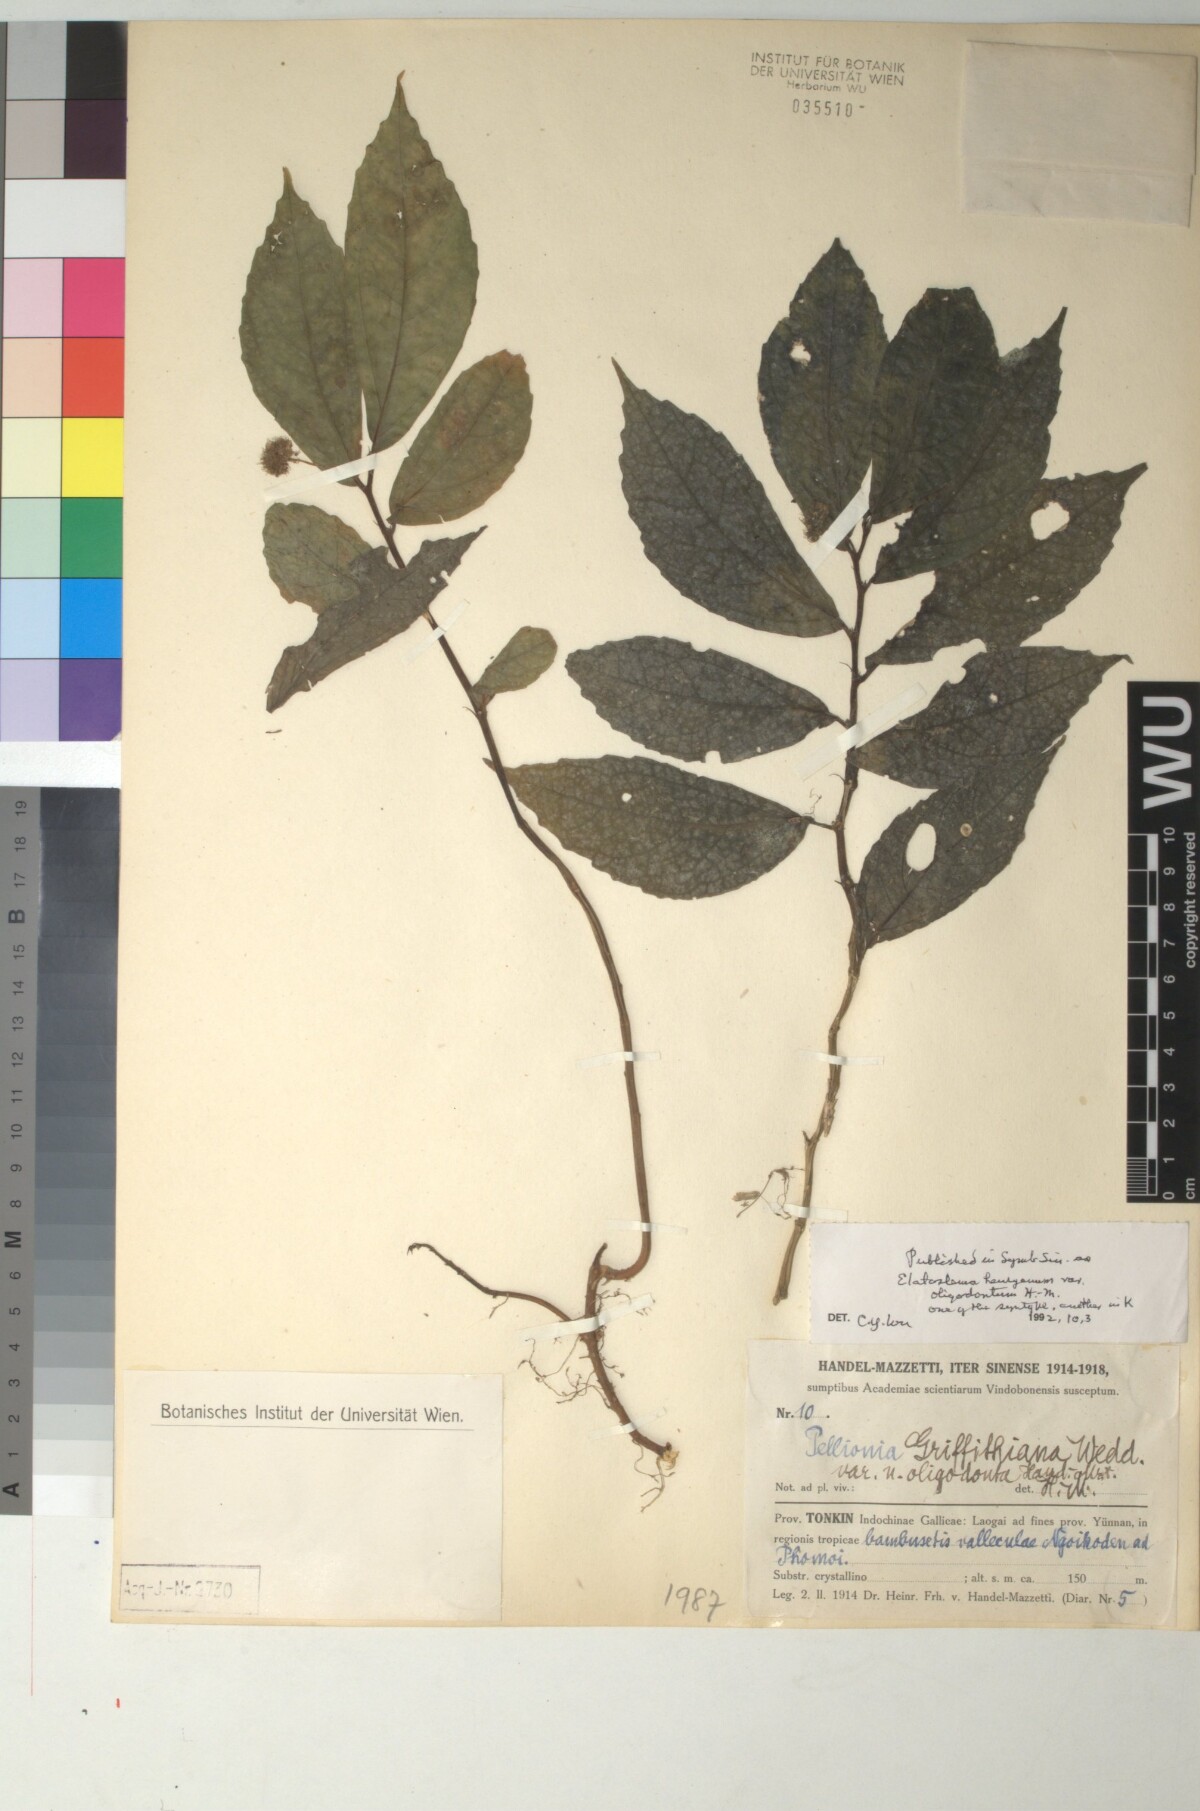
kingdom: Plantae
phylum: Tracheophyta
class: Magnoliopsida
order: Rosales
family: Urticaceae
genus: Elatostema
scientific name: Elatostema paucidentatum
